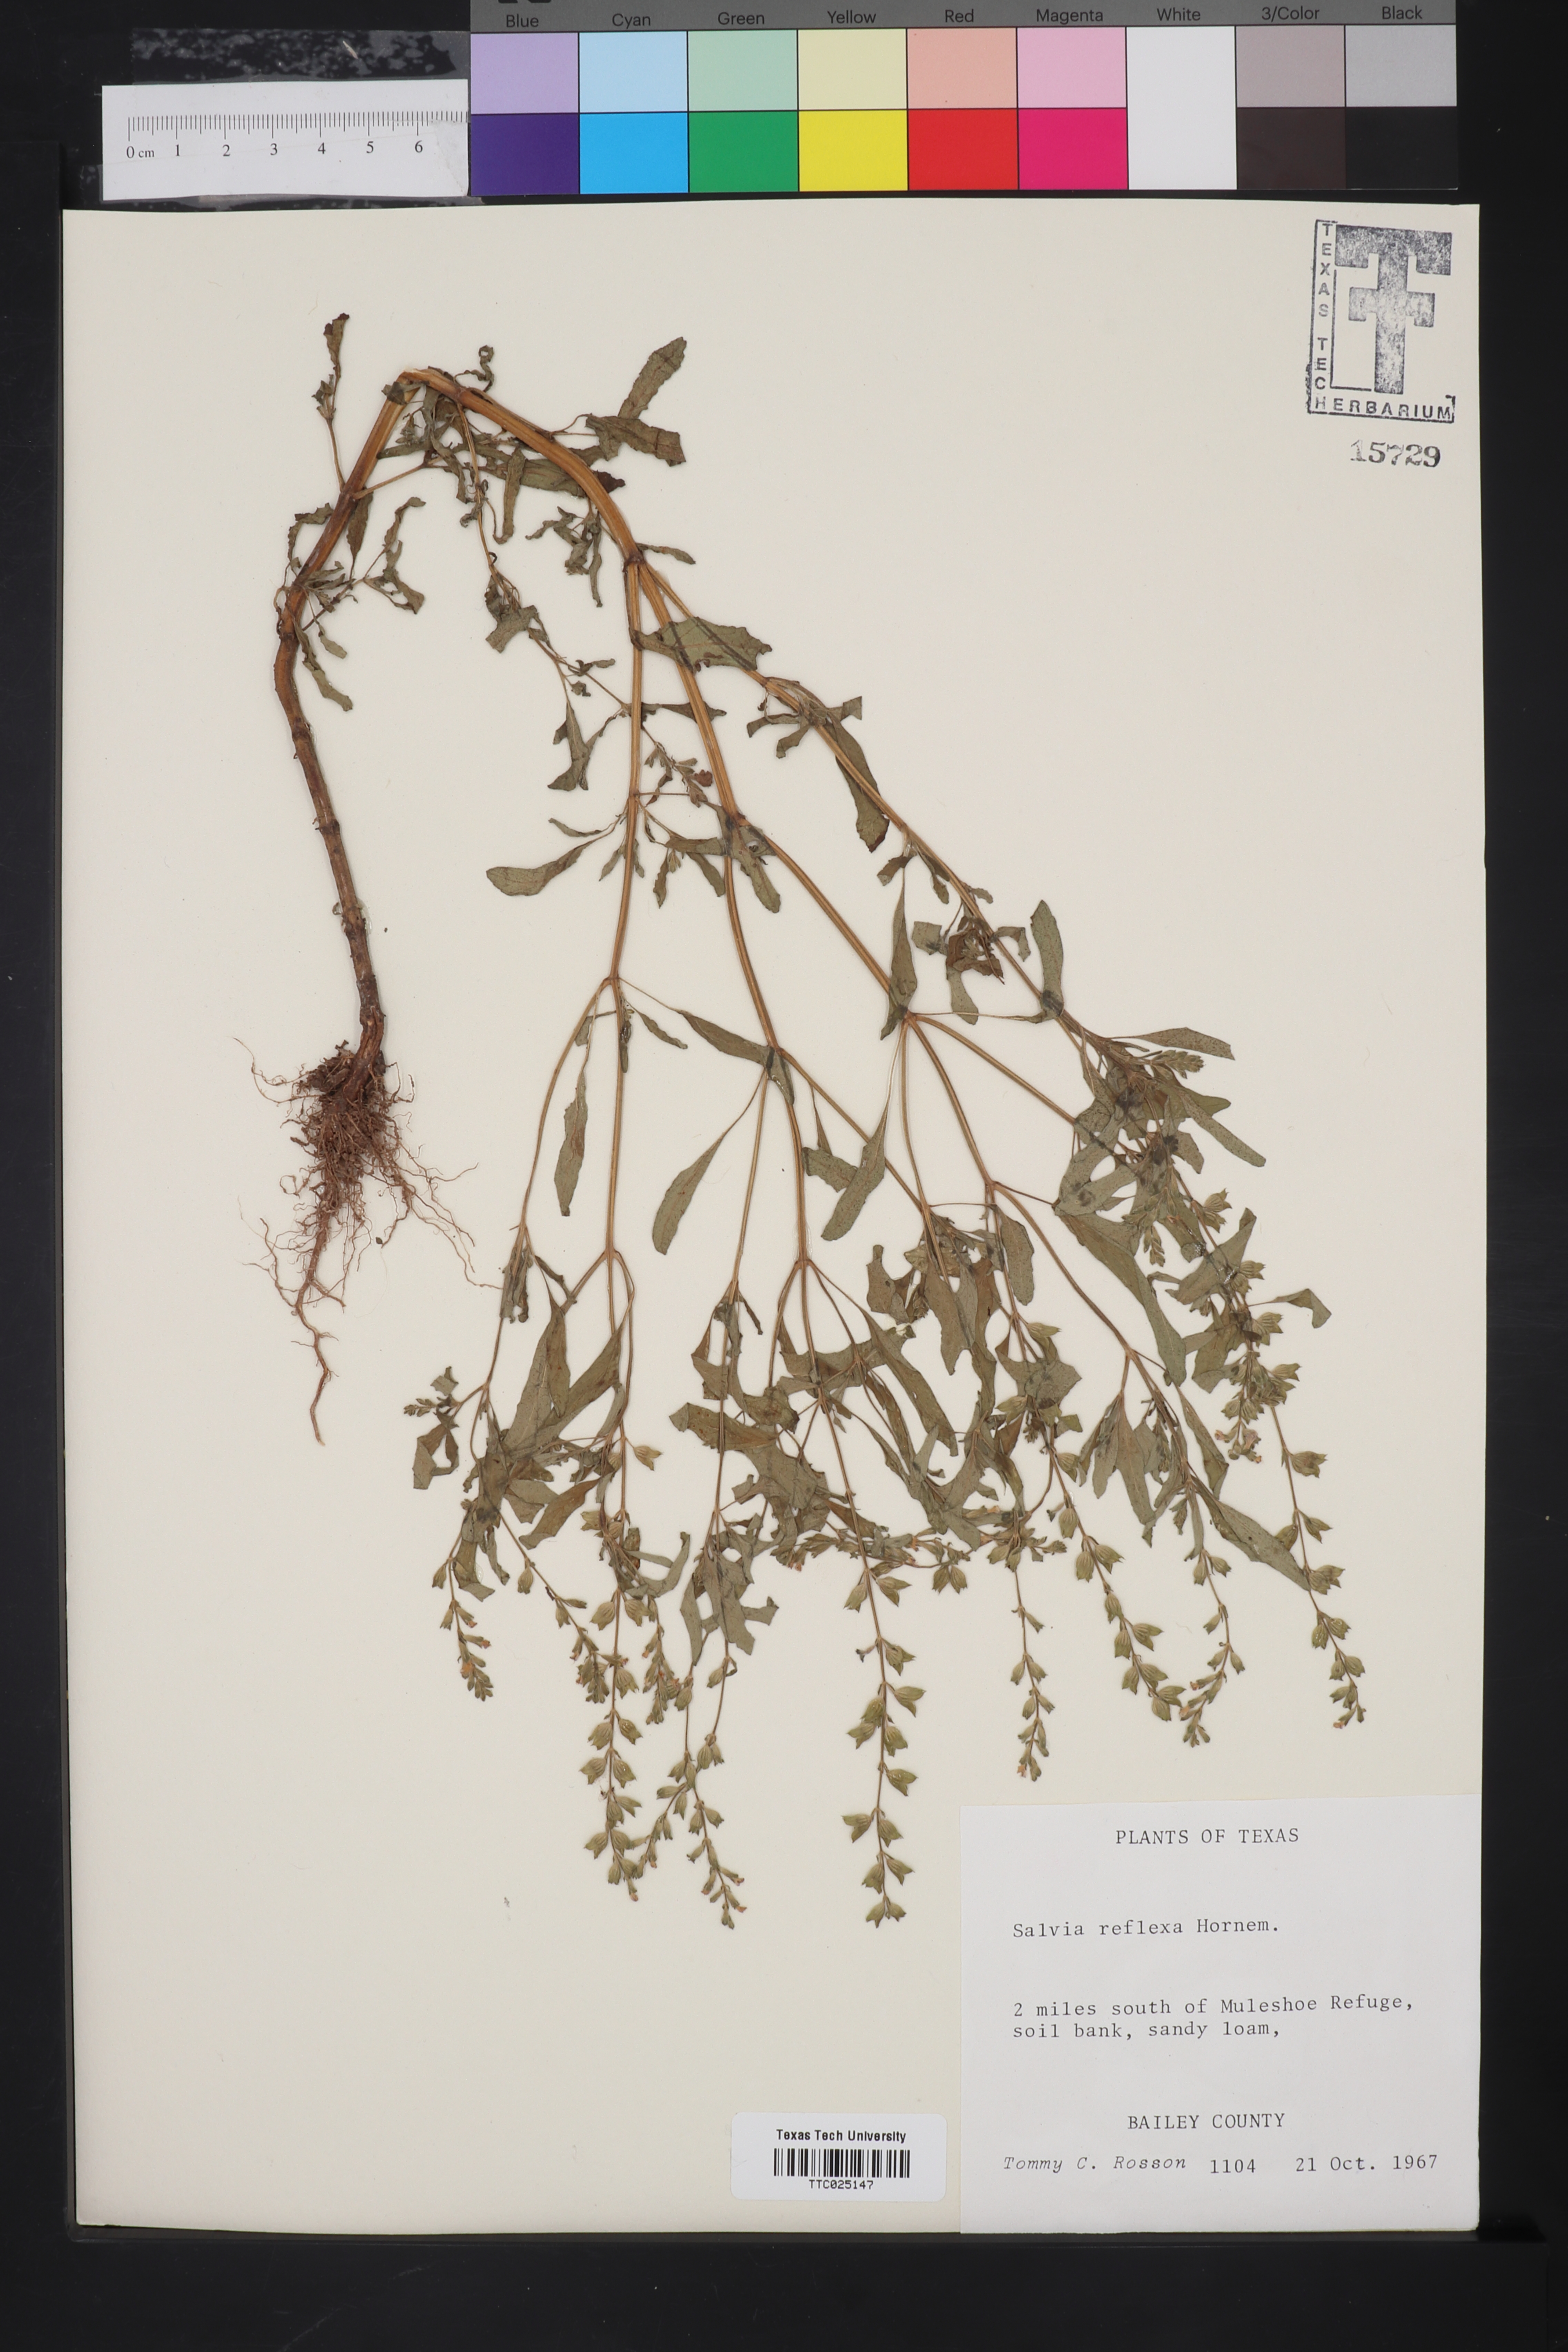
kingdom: Plantae
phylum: Tracheophyta
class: Magnoliopsida
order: Lamiales
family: Lamiaceae
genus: Salvia
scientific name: Salvia reflexa
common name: Mintweed
